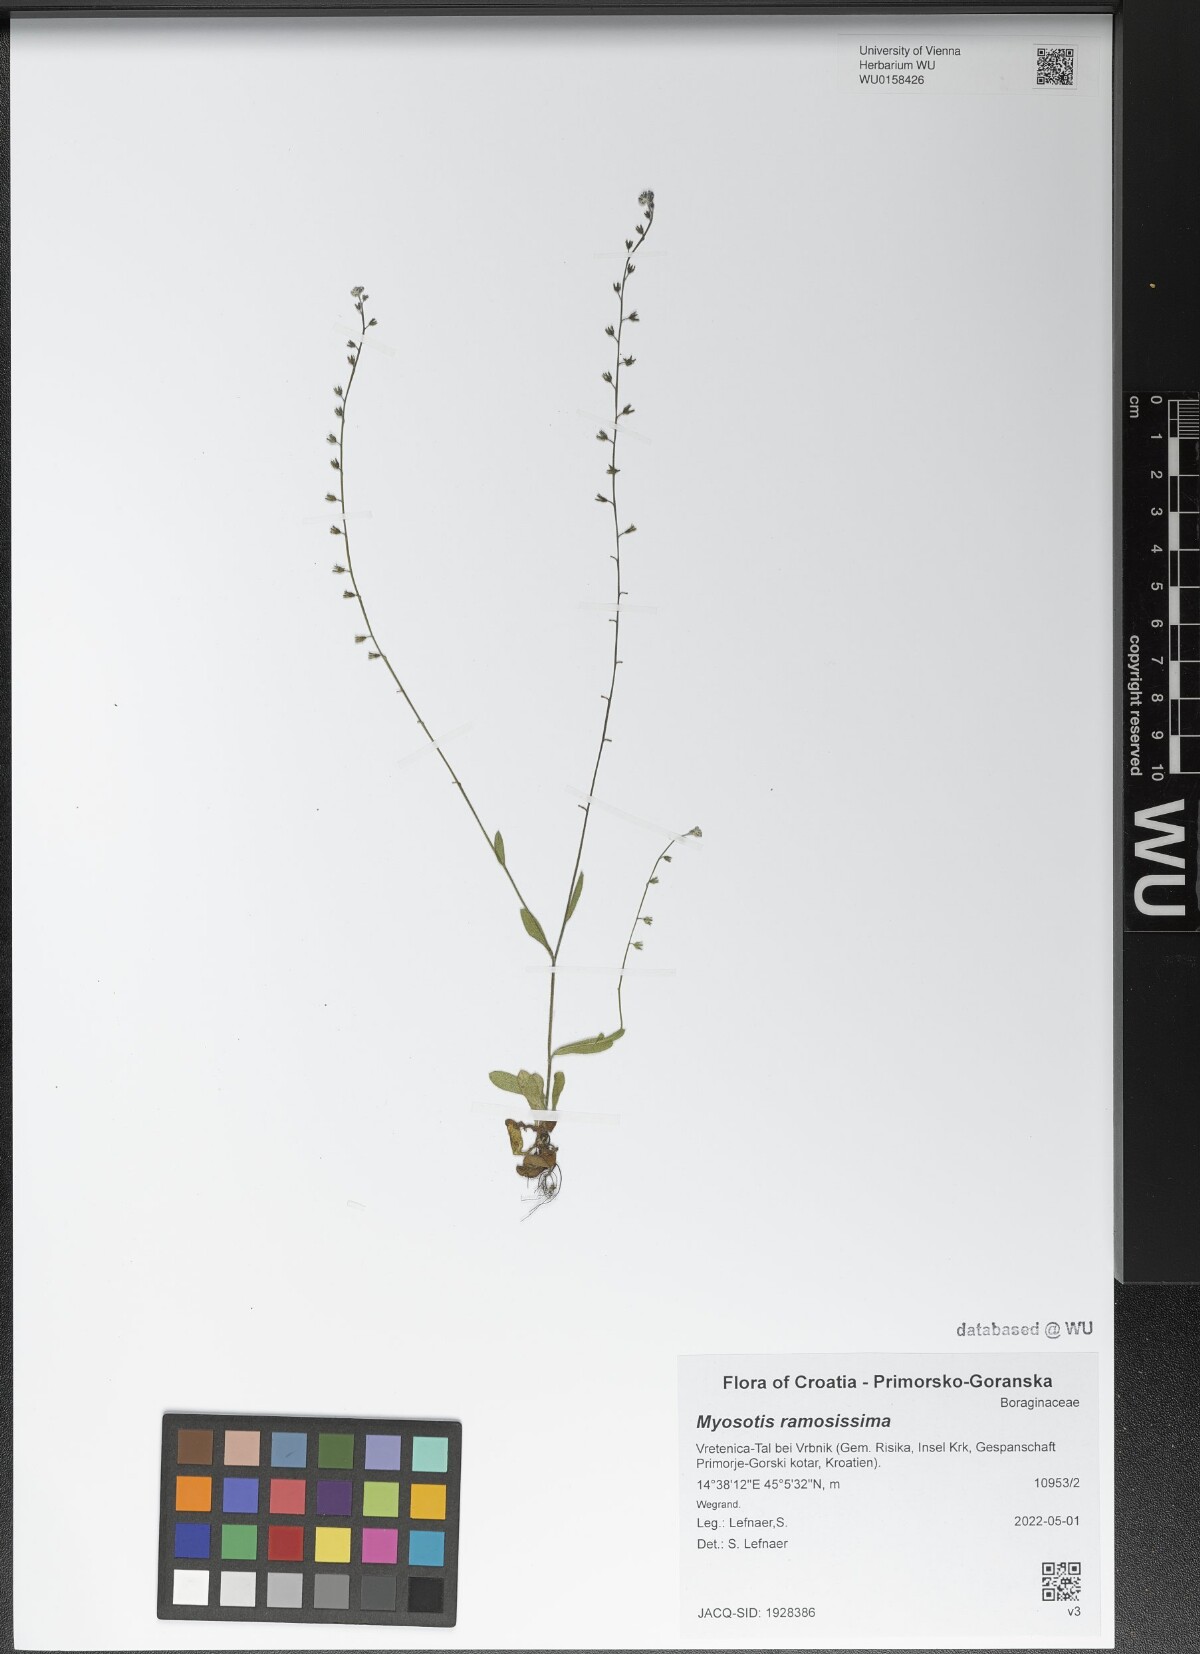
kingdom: Plantae
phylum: Tracheophyta
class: Magnoliopsida
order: Boraginales
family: Boraginaceae
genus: Myosotis
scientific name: Myosotis ramosissima
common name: Early forget-me-not
